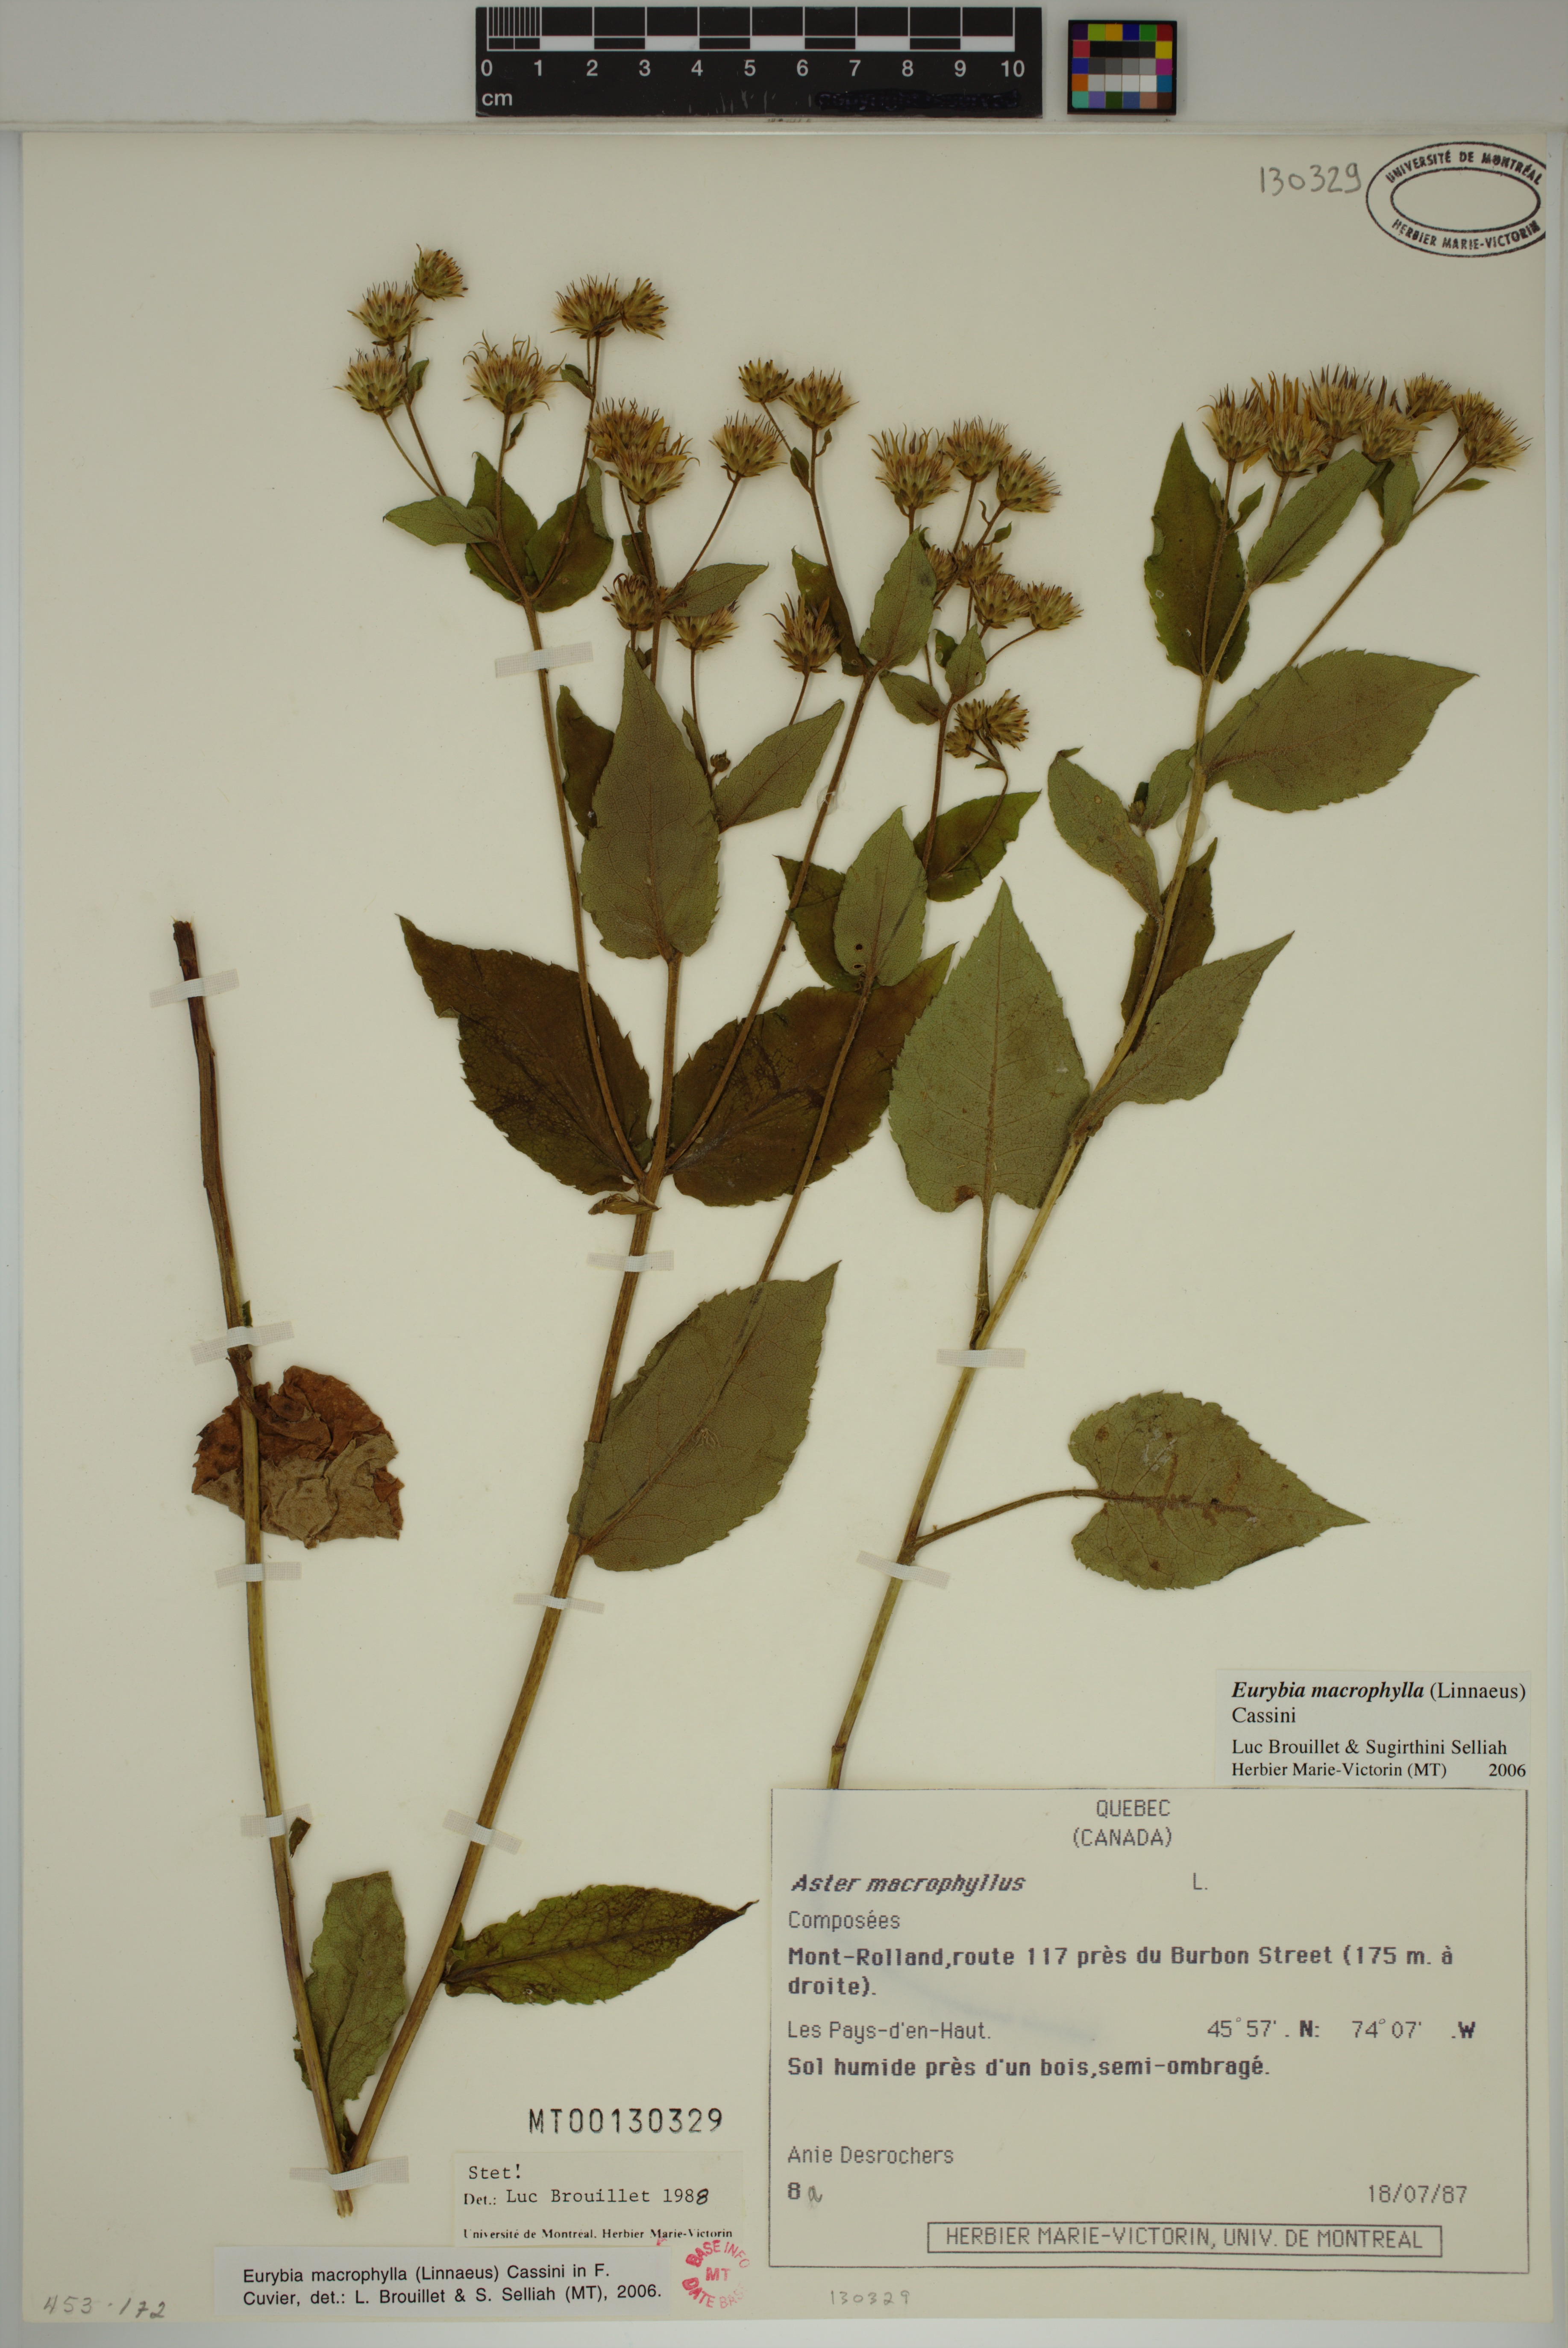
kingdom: Plantae
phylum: Tracheophyta
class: Magnoliopsida
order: Asterales
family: Asteraceae
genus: Eurybia
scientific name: Eurybia macrophylla
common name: Big-leaved aster
